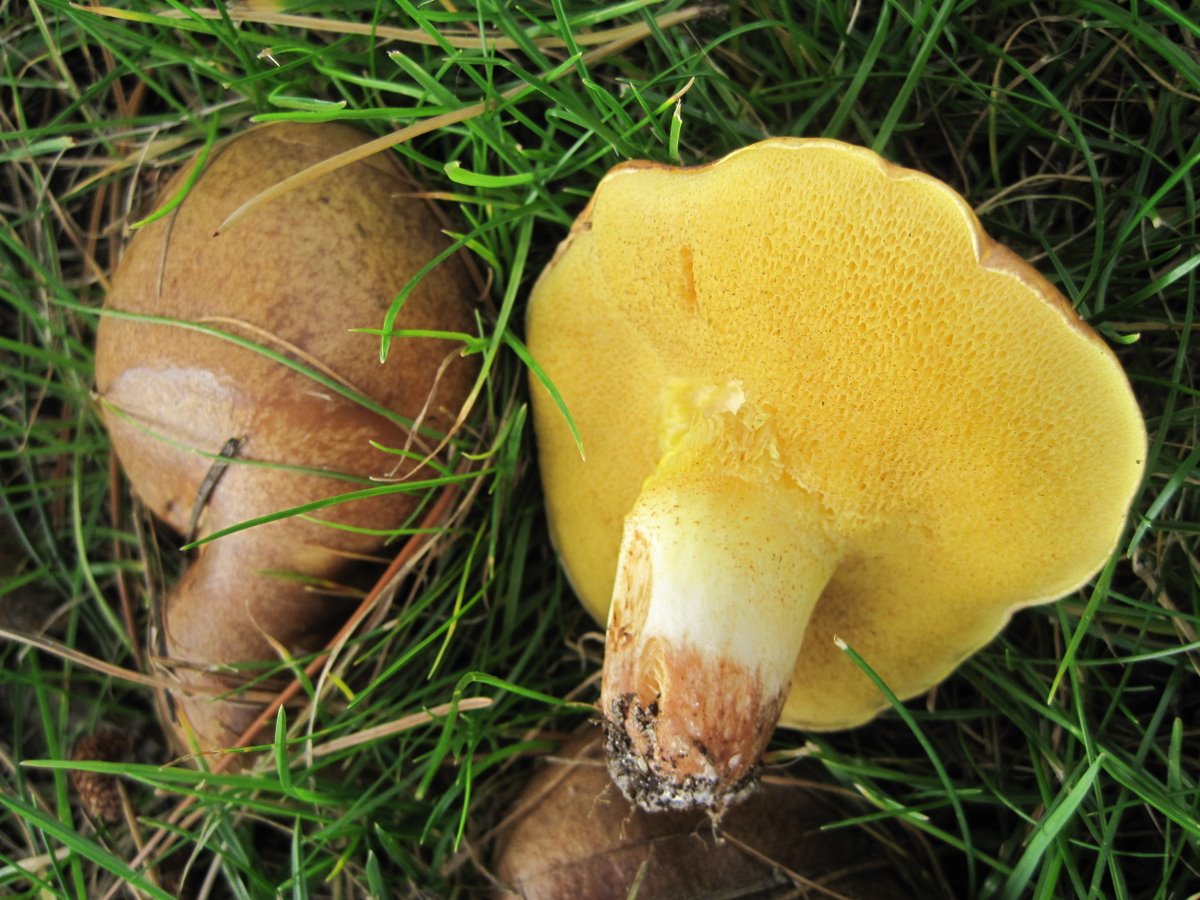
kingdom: Fungi
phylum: Basidiomycota
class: Agaricomycetes
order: Boletales
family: Suillaceae
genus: Suillus
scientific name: Suillus collinitus
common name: rosafodet slimrørhat
